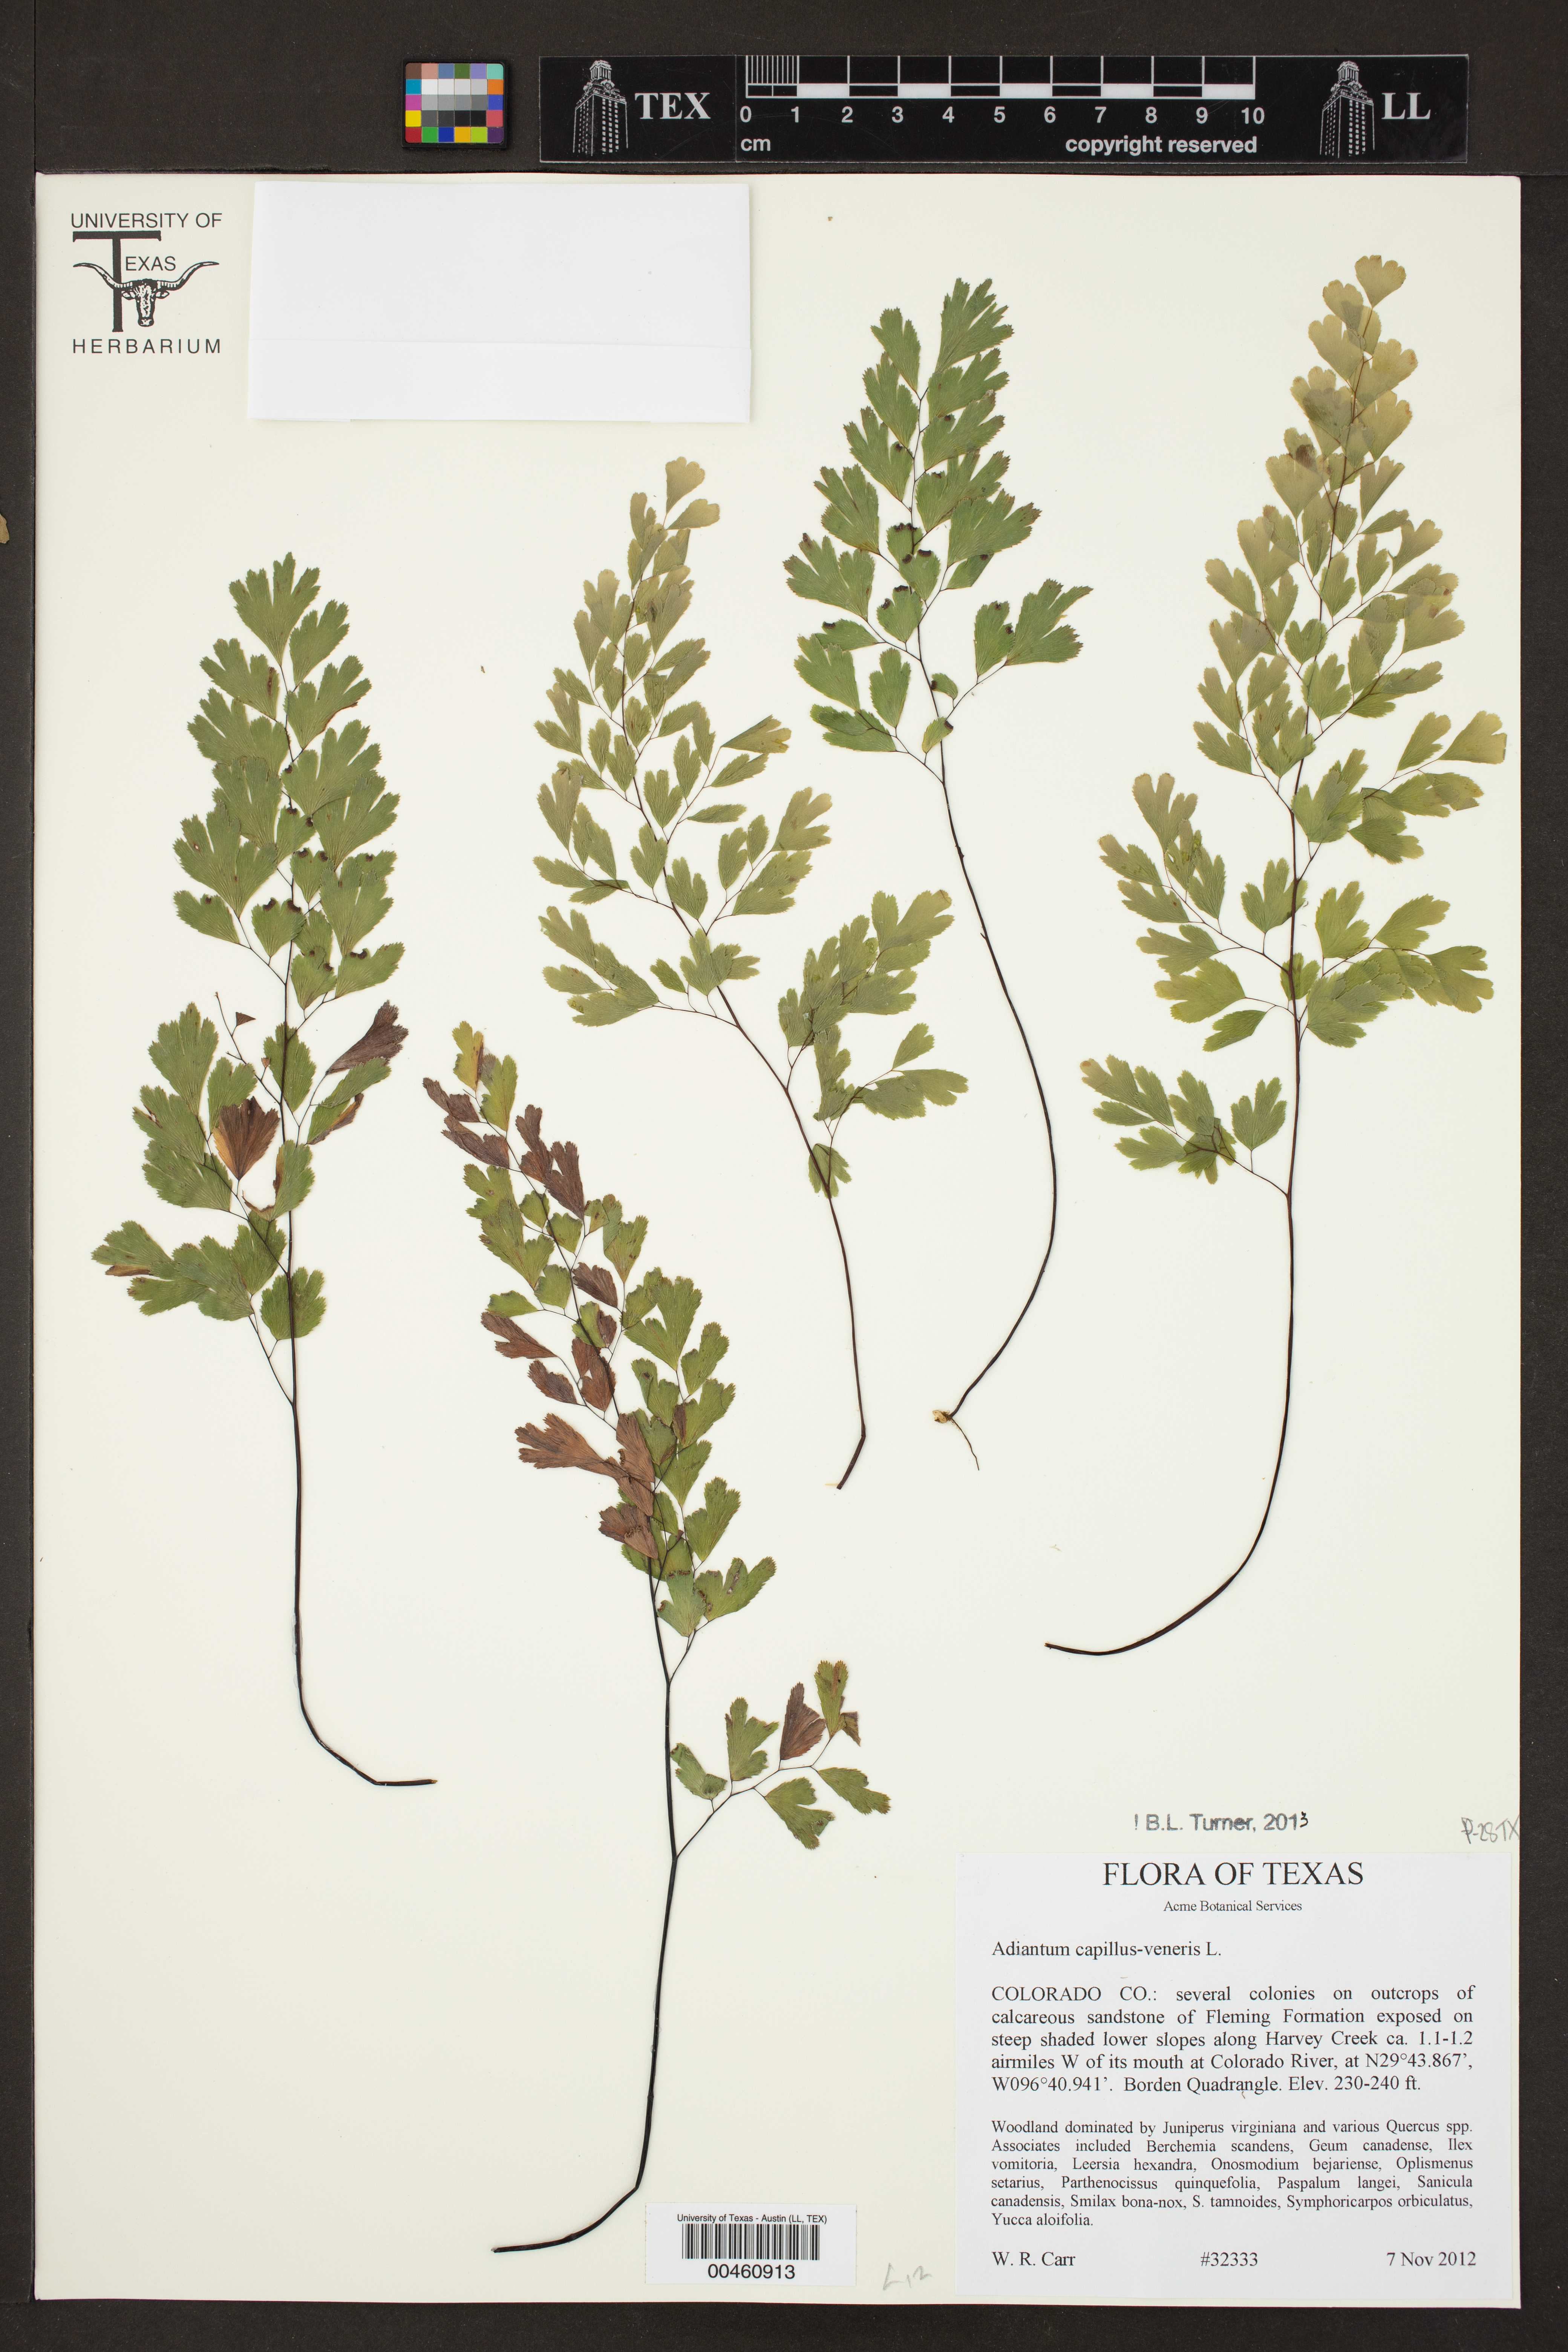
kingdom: Plantae
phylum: Tracheophyta
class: Polypodiopsida
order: Polypodiales
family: Pteridaceae
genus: Adiantum
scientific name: Adiantum capillus-veneris
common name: Maidenhair fern
